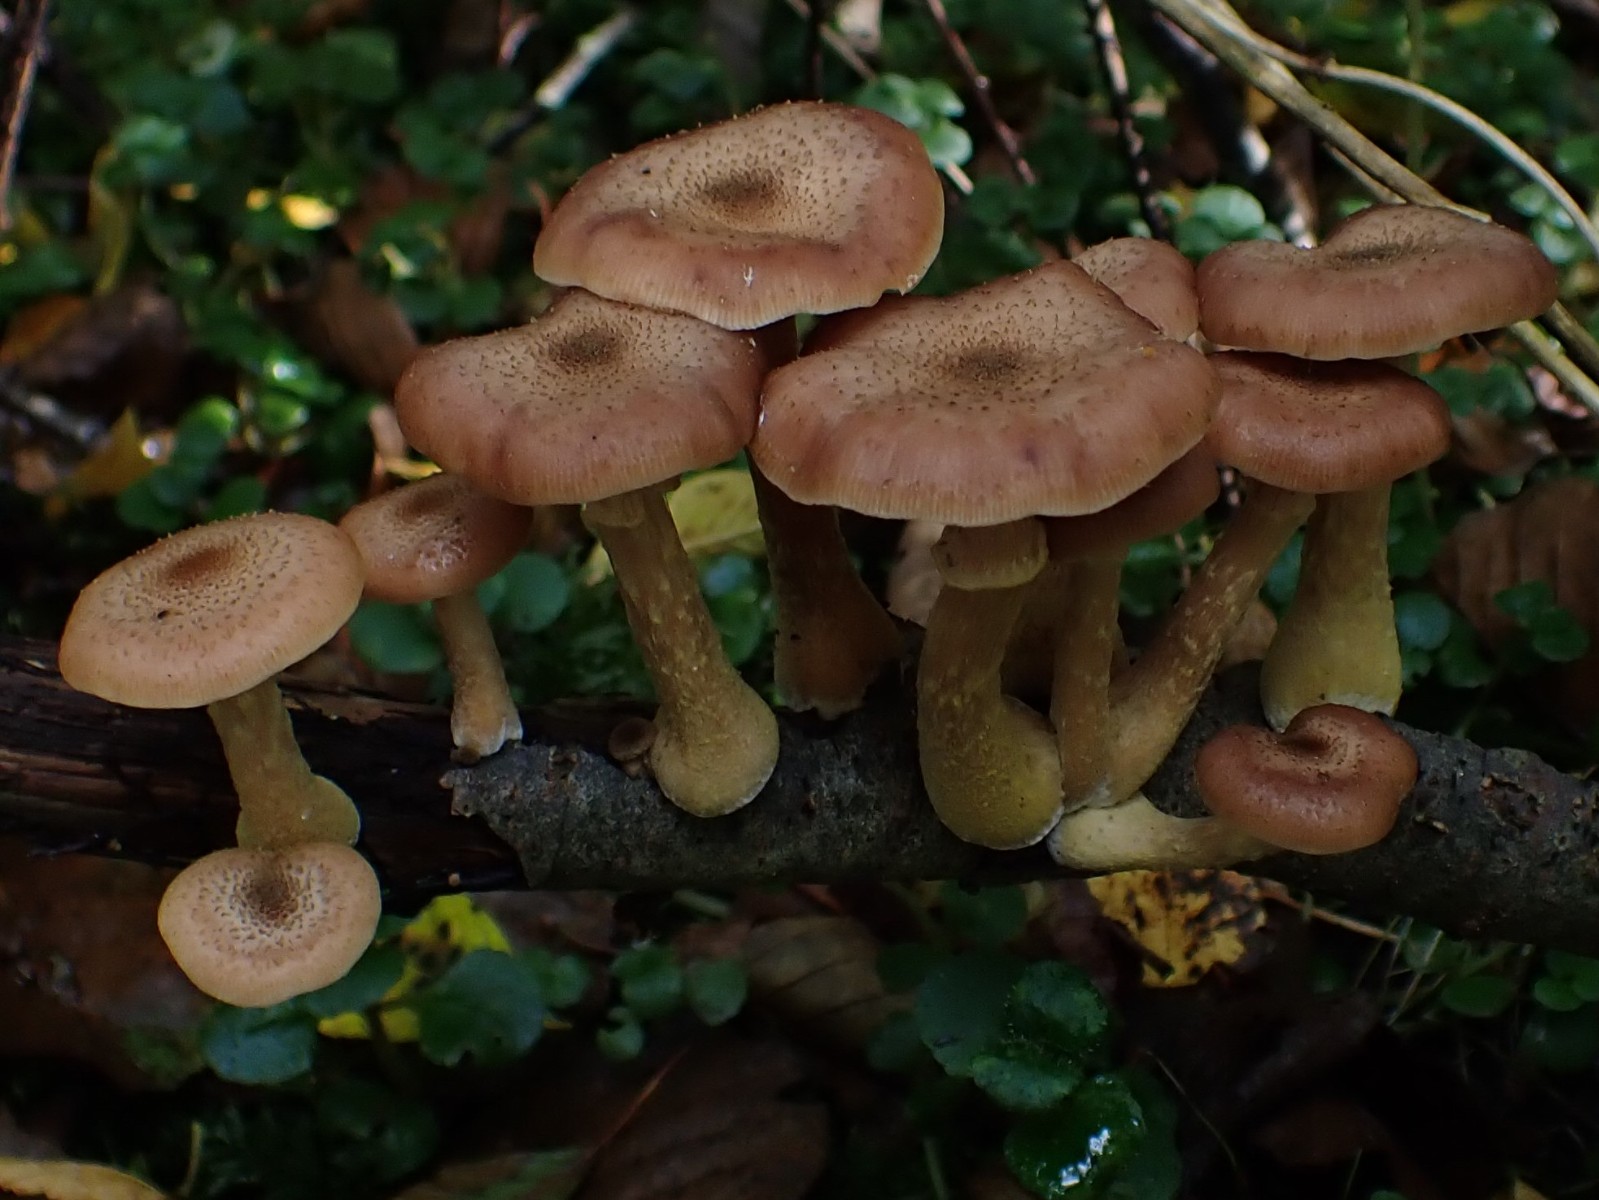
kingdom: Fungi
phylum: Basidiomycota
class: Agaricomycetes
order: Agaricales
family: Physalacriaceae
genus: Armillaria
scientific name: Armillaria lutea
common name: køllestokket honningsvamp
